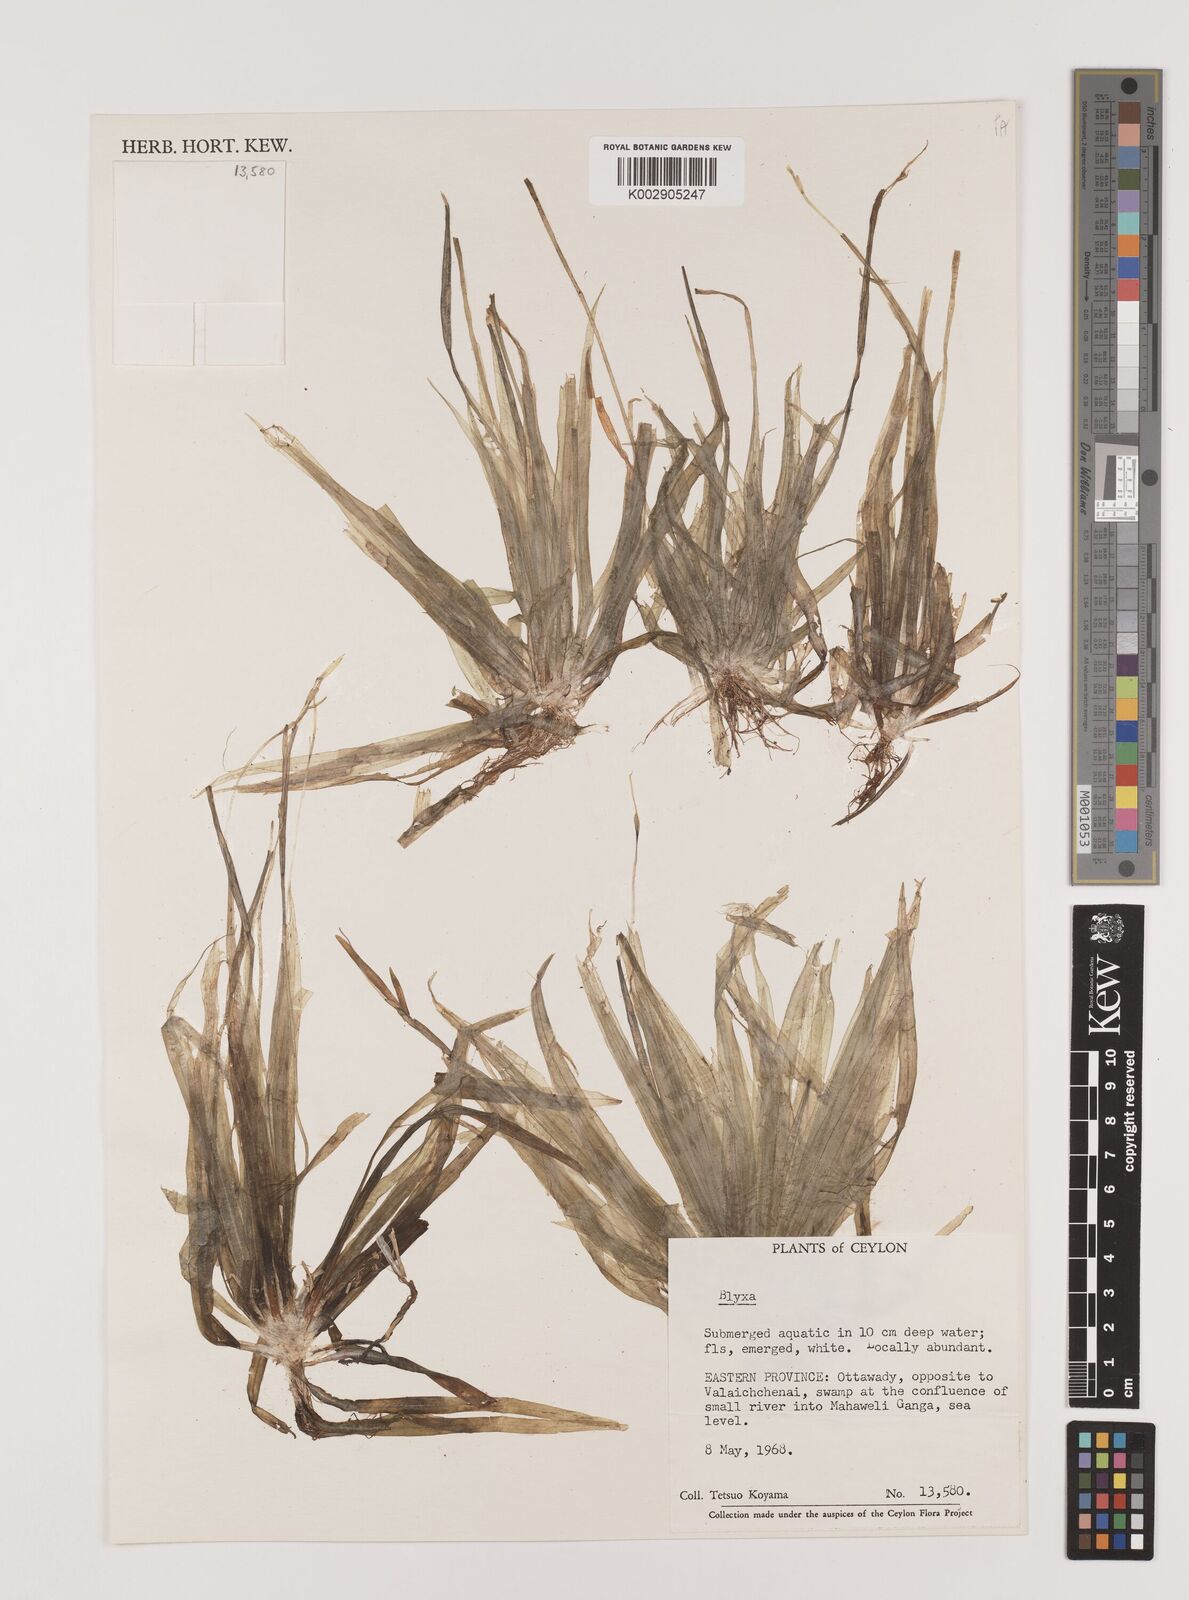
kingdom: Plantae
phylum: Tracheophyta
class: Liliopsida
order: Alismatales
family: Hydrocharitaceae
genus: Blyxa
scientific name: Blyxa
